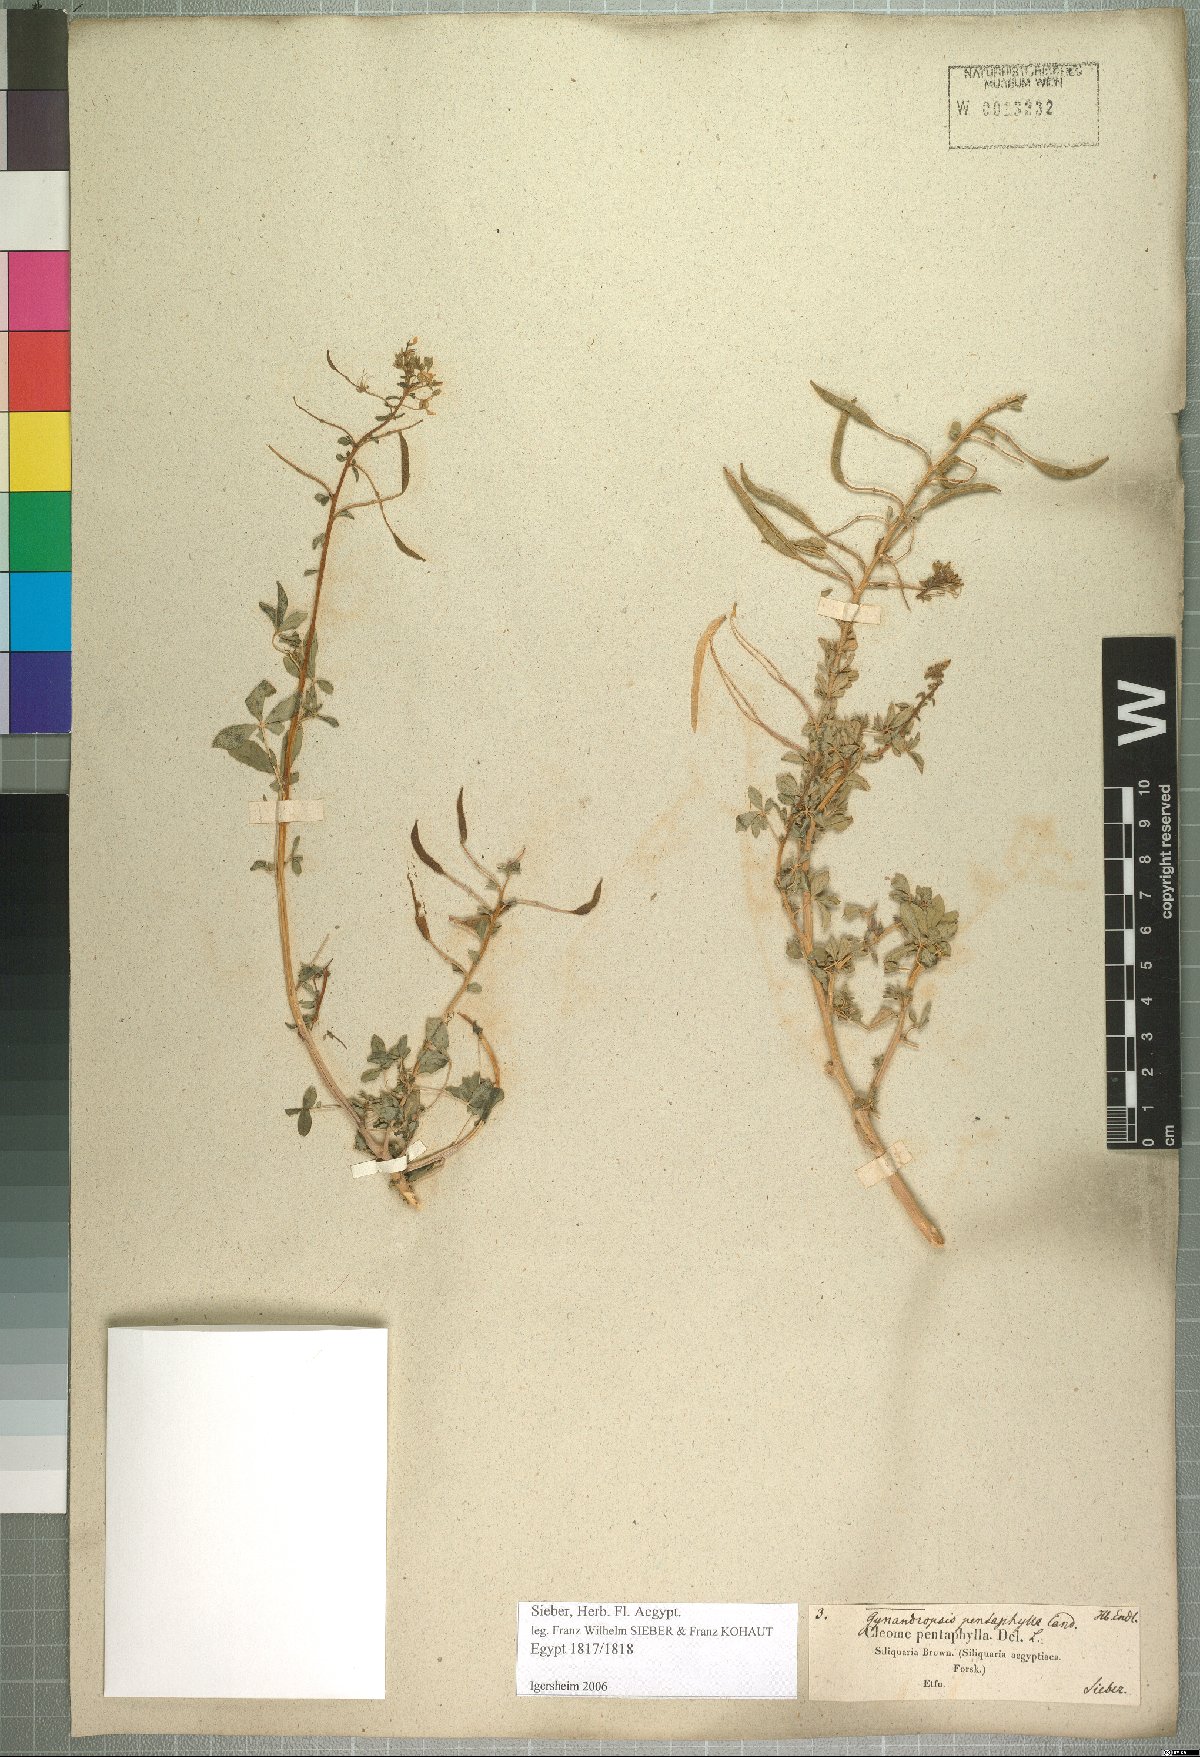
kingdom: Plantae
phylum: Tracheophyta
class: Magnoliopsida
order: Brassicales
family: Cleomaceae
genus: Gynandropsis
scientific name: Gynandropsis gynandra
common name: Spiderwisp
